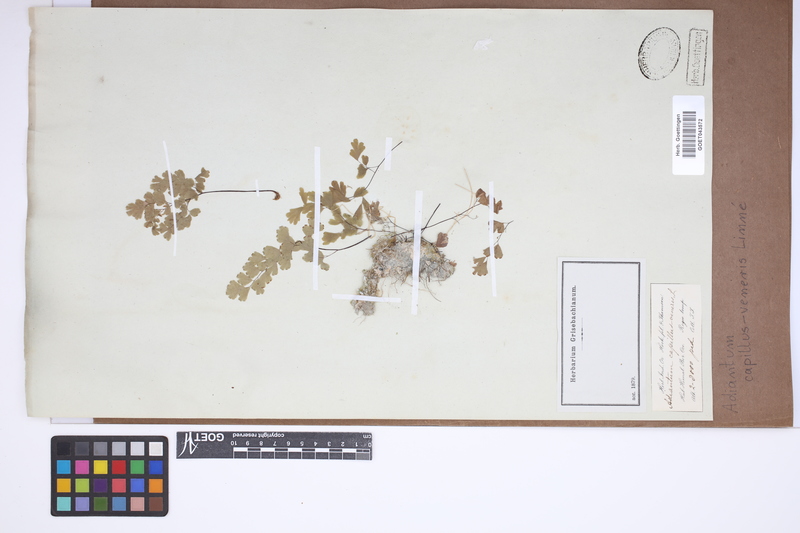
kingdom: Plantae
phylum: Tracheophyta
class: Polypodiopsida
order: Polypodiales
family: Pteridaceae
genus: Adiantum
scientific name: Adiantum capillus-veneris
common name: Maidenhair fern
